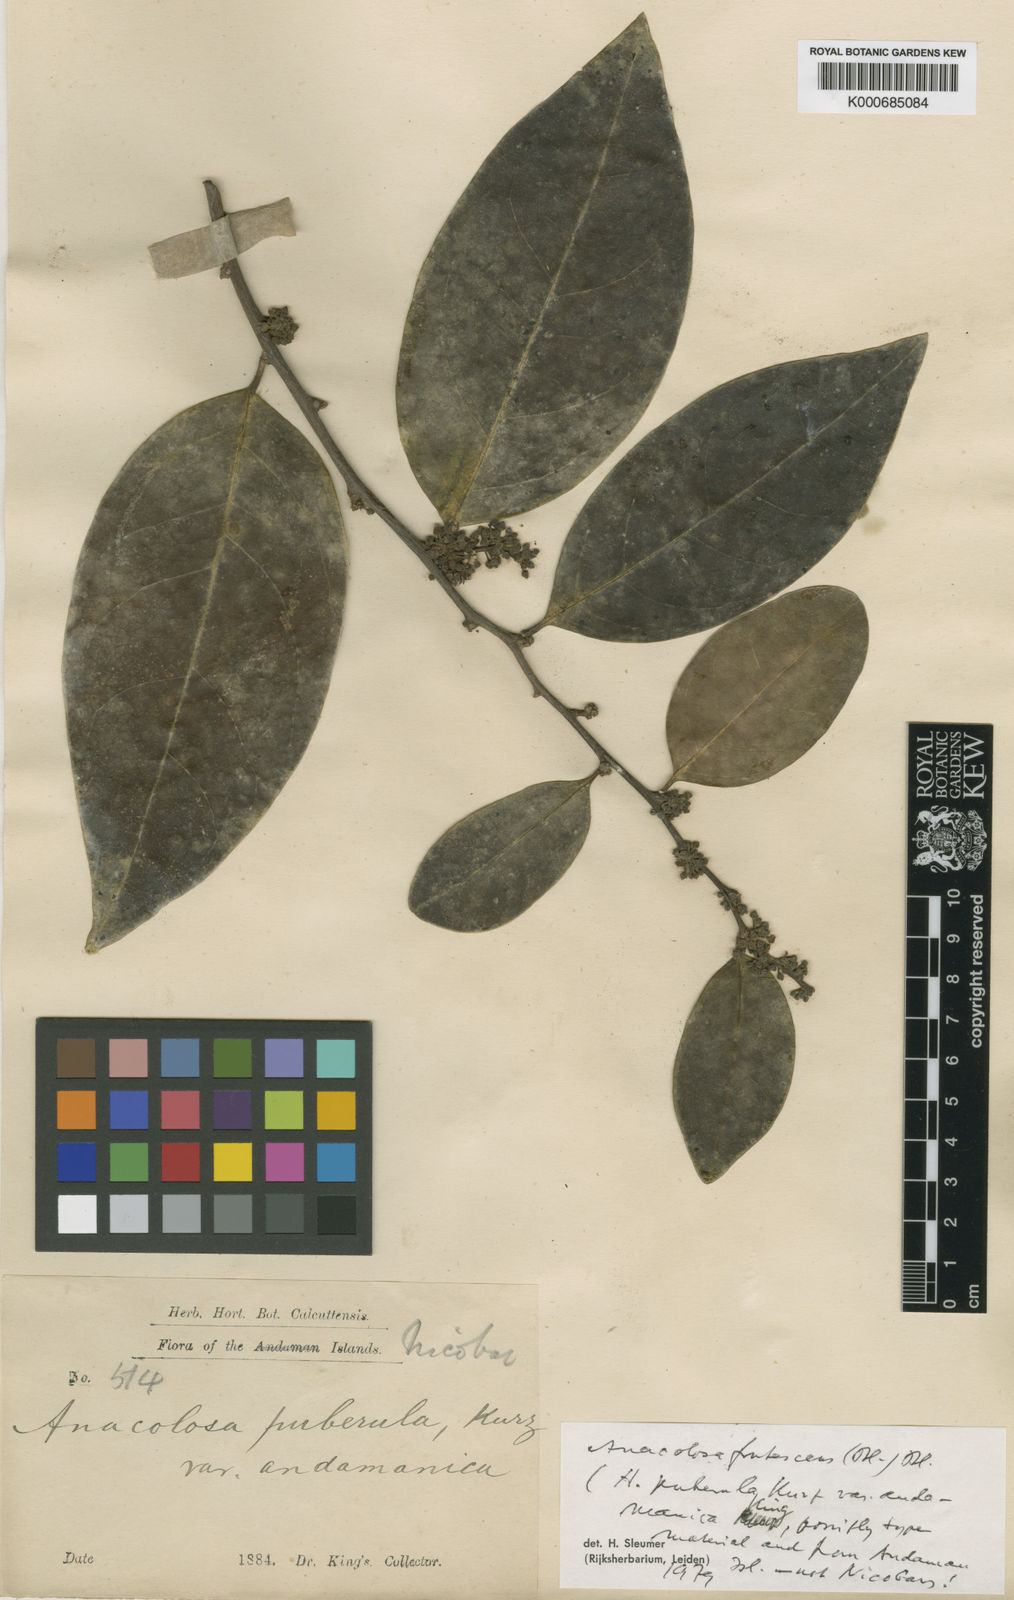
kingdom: Plantae
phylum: Tracheophyta
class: Magnoliopsida
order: Santalales
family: Aptandraceae
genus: Anacolosa
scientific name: Anacolosa frutescens
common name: Galo nut
